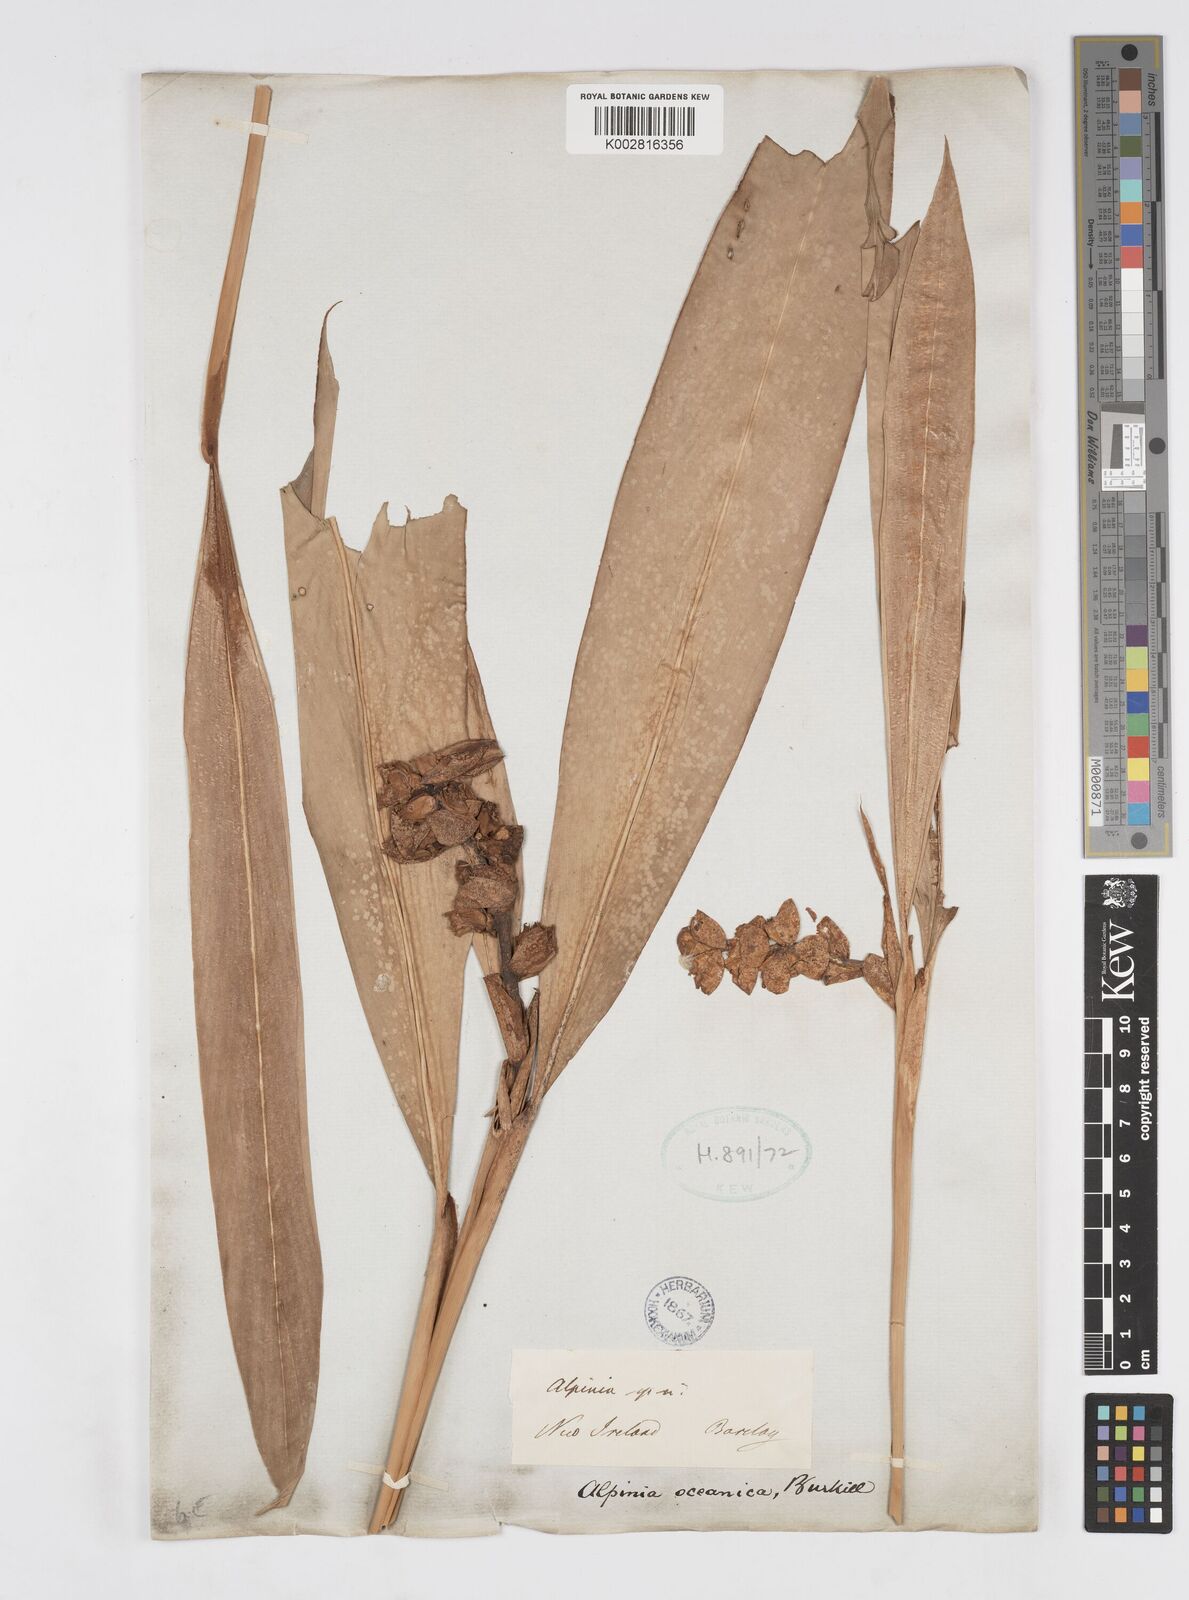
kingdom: Plantae
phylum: Tracheophyta
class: Liliopsida
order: Zingiberales
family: Zingiberaceae
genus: Alpinia
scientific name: Alpinia oceanica
